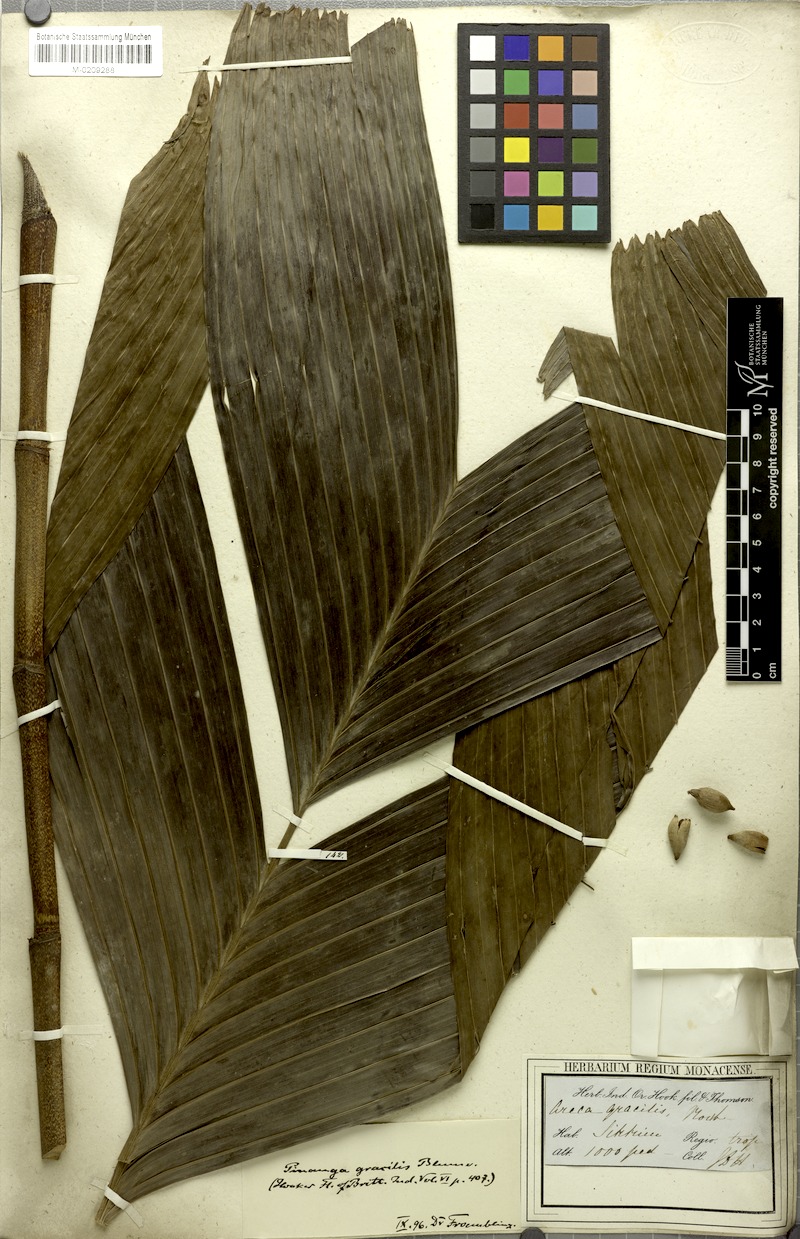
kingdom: Plantae
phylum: Tracheophyta
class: Liliopsida
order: Arecales
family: Arecaceae
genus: Pinanga
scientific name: Pinanga gracilis
